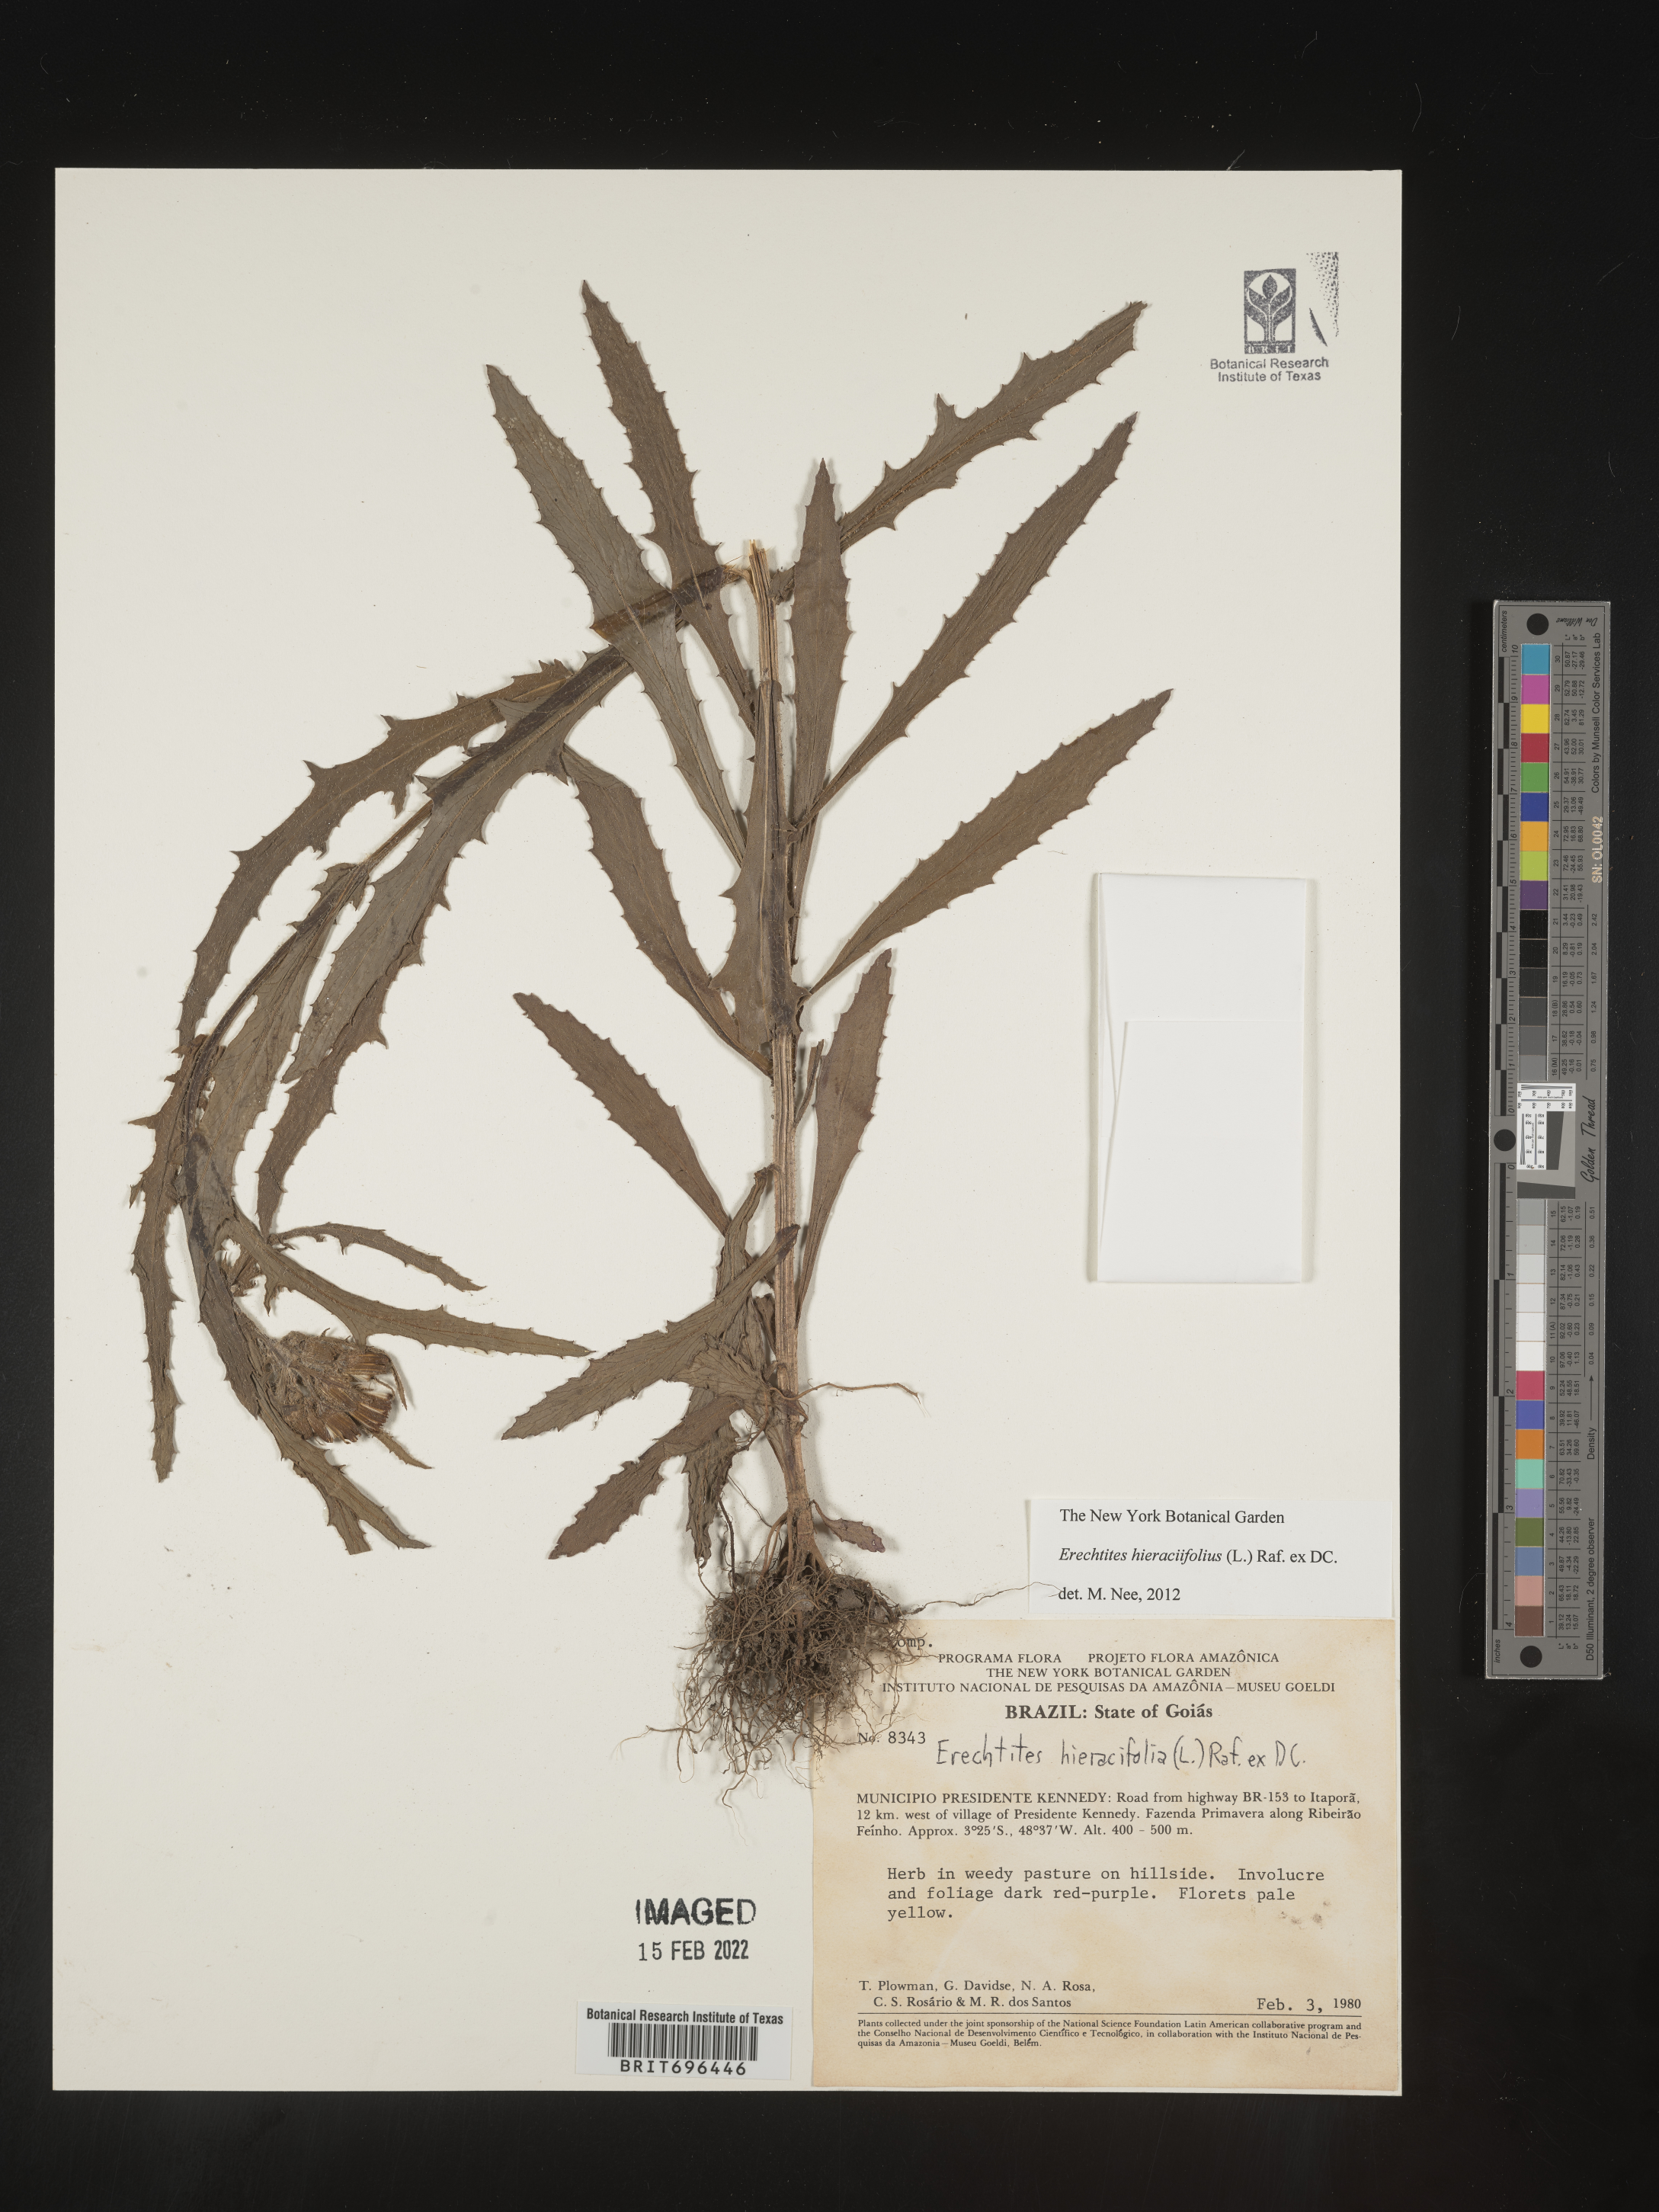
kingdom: Plantae
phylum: Tracheophyta
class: Magnoliopsida
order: Asterales
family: Asteraceae
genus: Erechtites
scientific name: Erechtites
